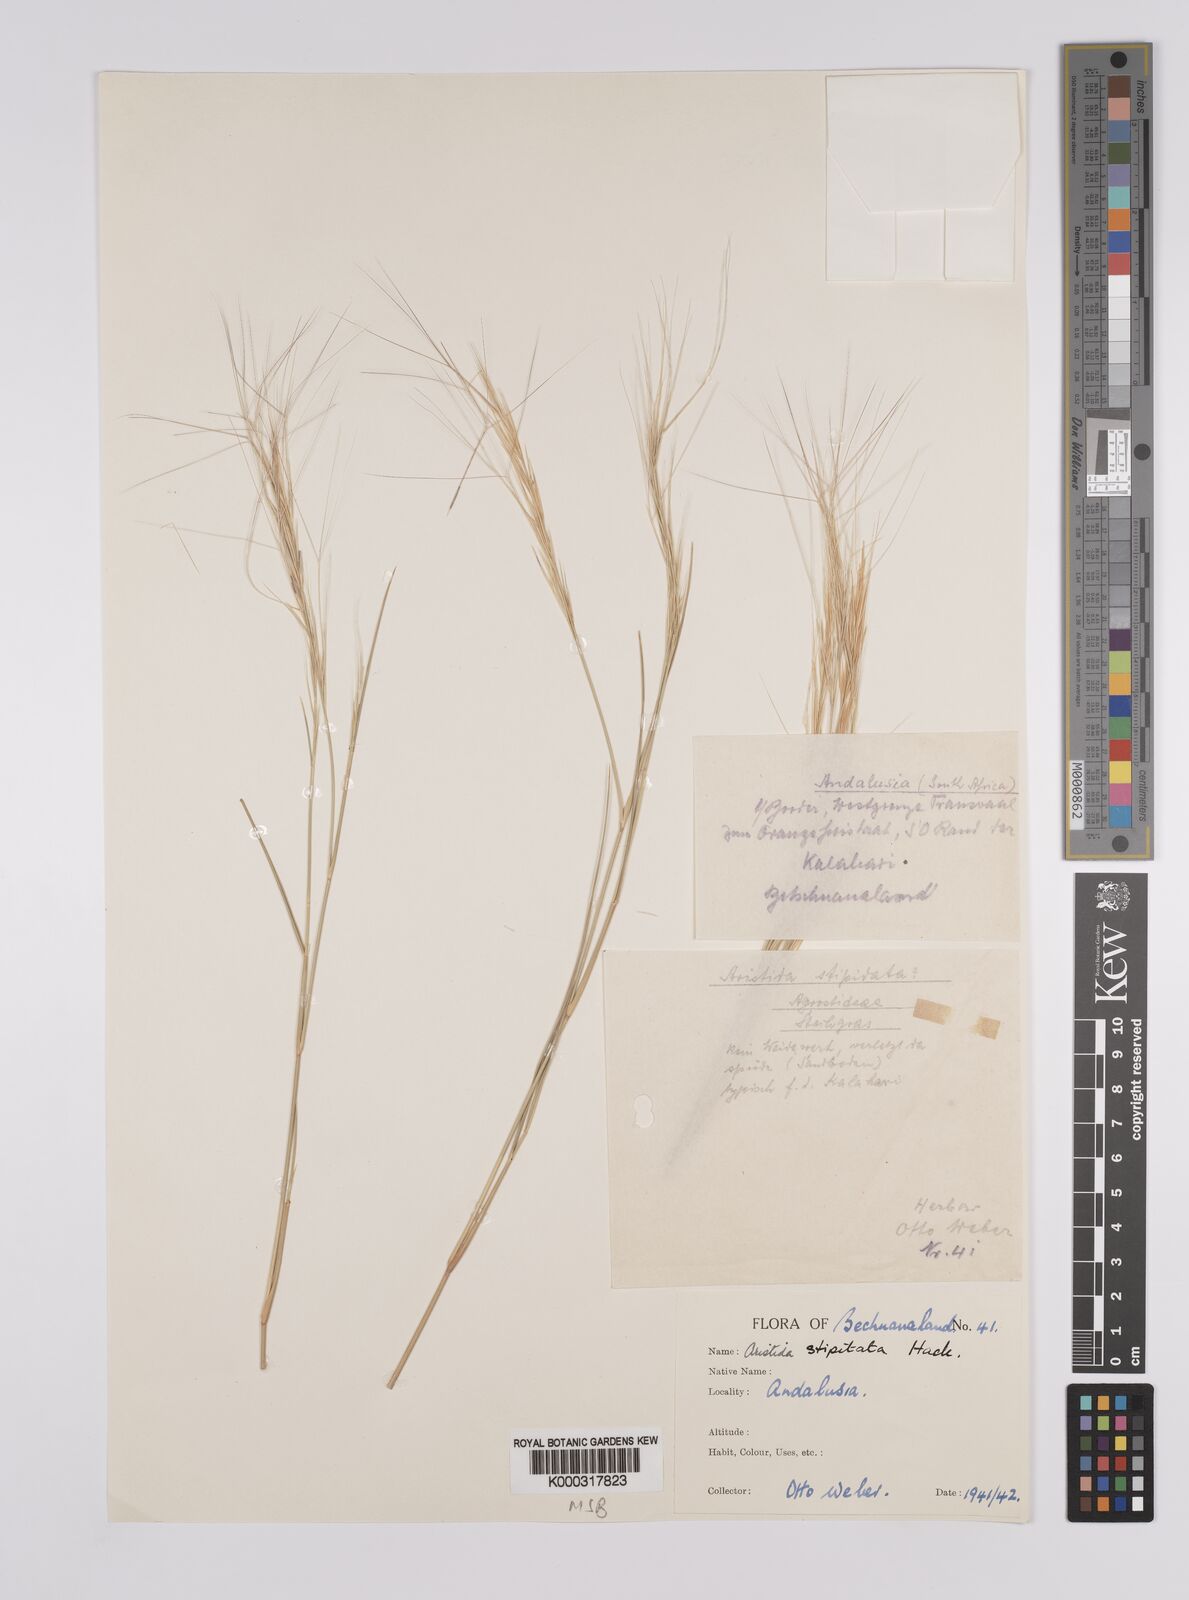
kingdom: Plantae
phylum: Tracheophyta
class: Liliopsida
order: Poales
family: Poaceae
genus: Aristida
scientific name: Aristida stipitata
